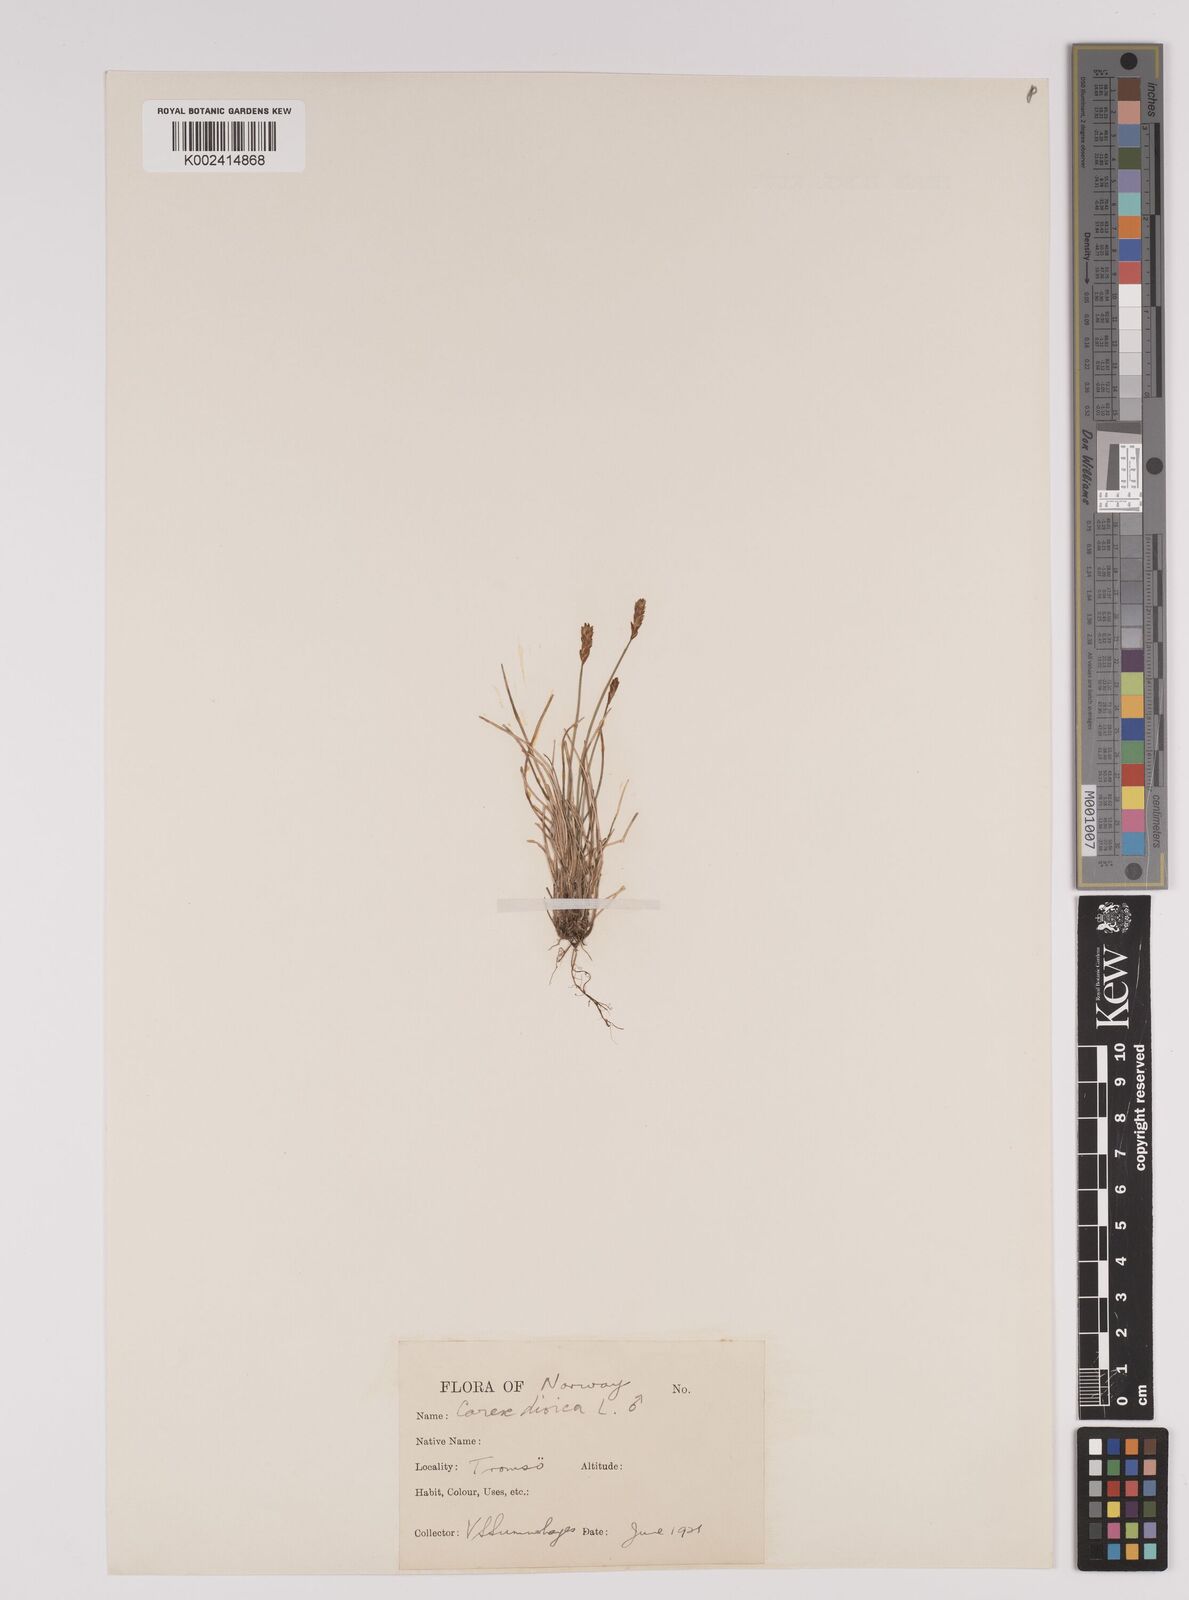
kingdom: Plantae
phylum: Tracheophyta
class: Liliopsida
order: Poales
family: Cyperaceae
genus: Carex
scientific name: Carex dioica
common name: Dioecious sedge
